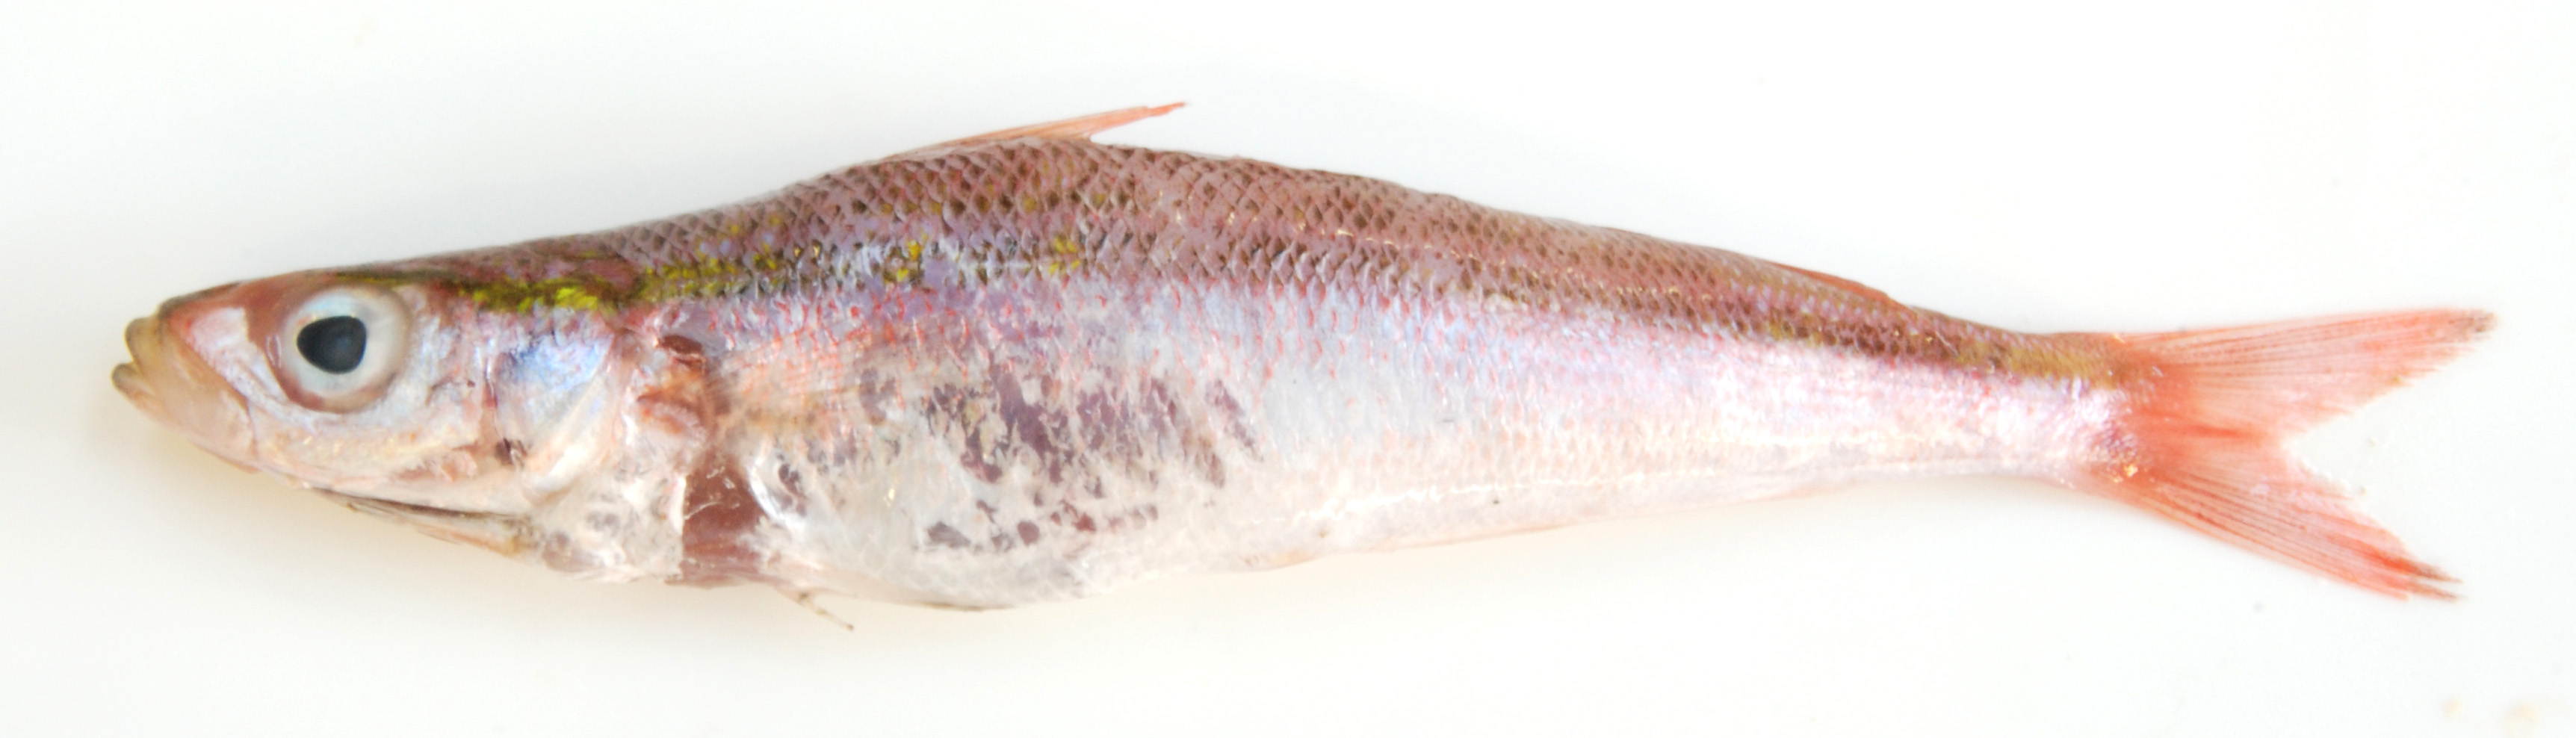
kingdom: Animalia
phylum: Chordata
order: Perciformes
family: Emmelichthyidae
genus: Erythrocles
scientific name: Erythrocles schlegelii
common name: Japanese rubyfish
